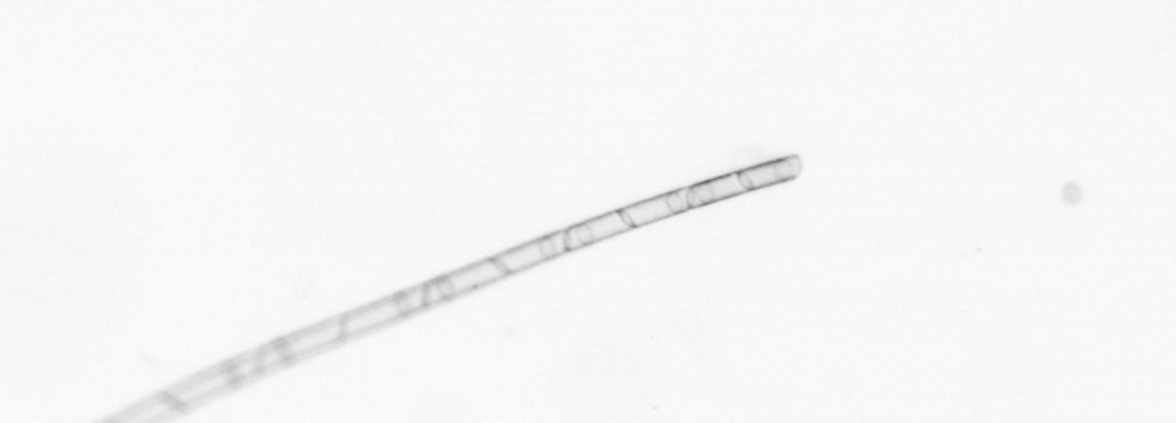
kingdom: Chromista
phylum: Ochrophyta
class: Bacillariophyceae
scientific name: Bacillariophyceae
